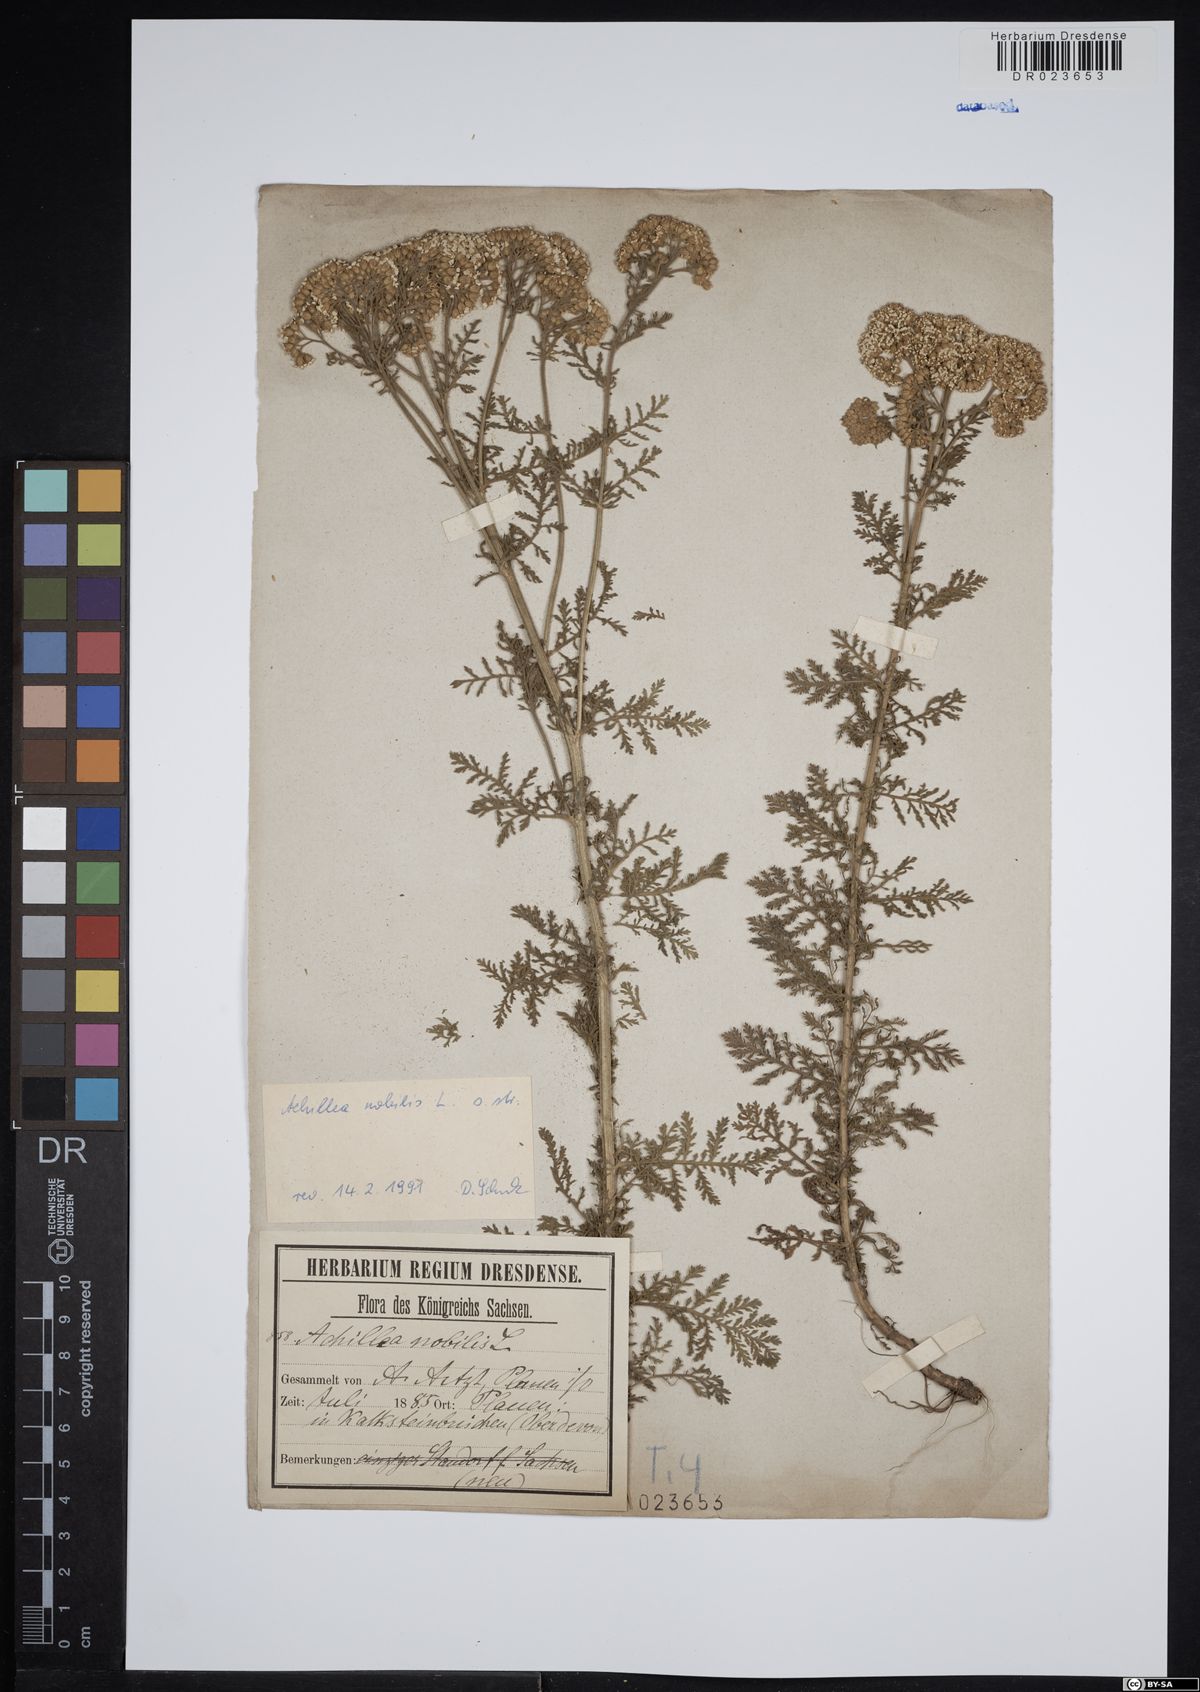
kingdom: Plantae
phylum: Tracheophyta
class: Magnoliopsida
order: Asterales
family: Asteraceae
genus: Achillea
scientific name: Achillea nobilis
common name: Noble yarrow
